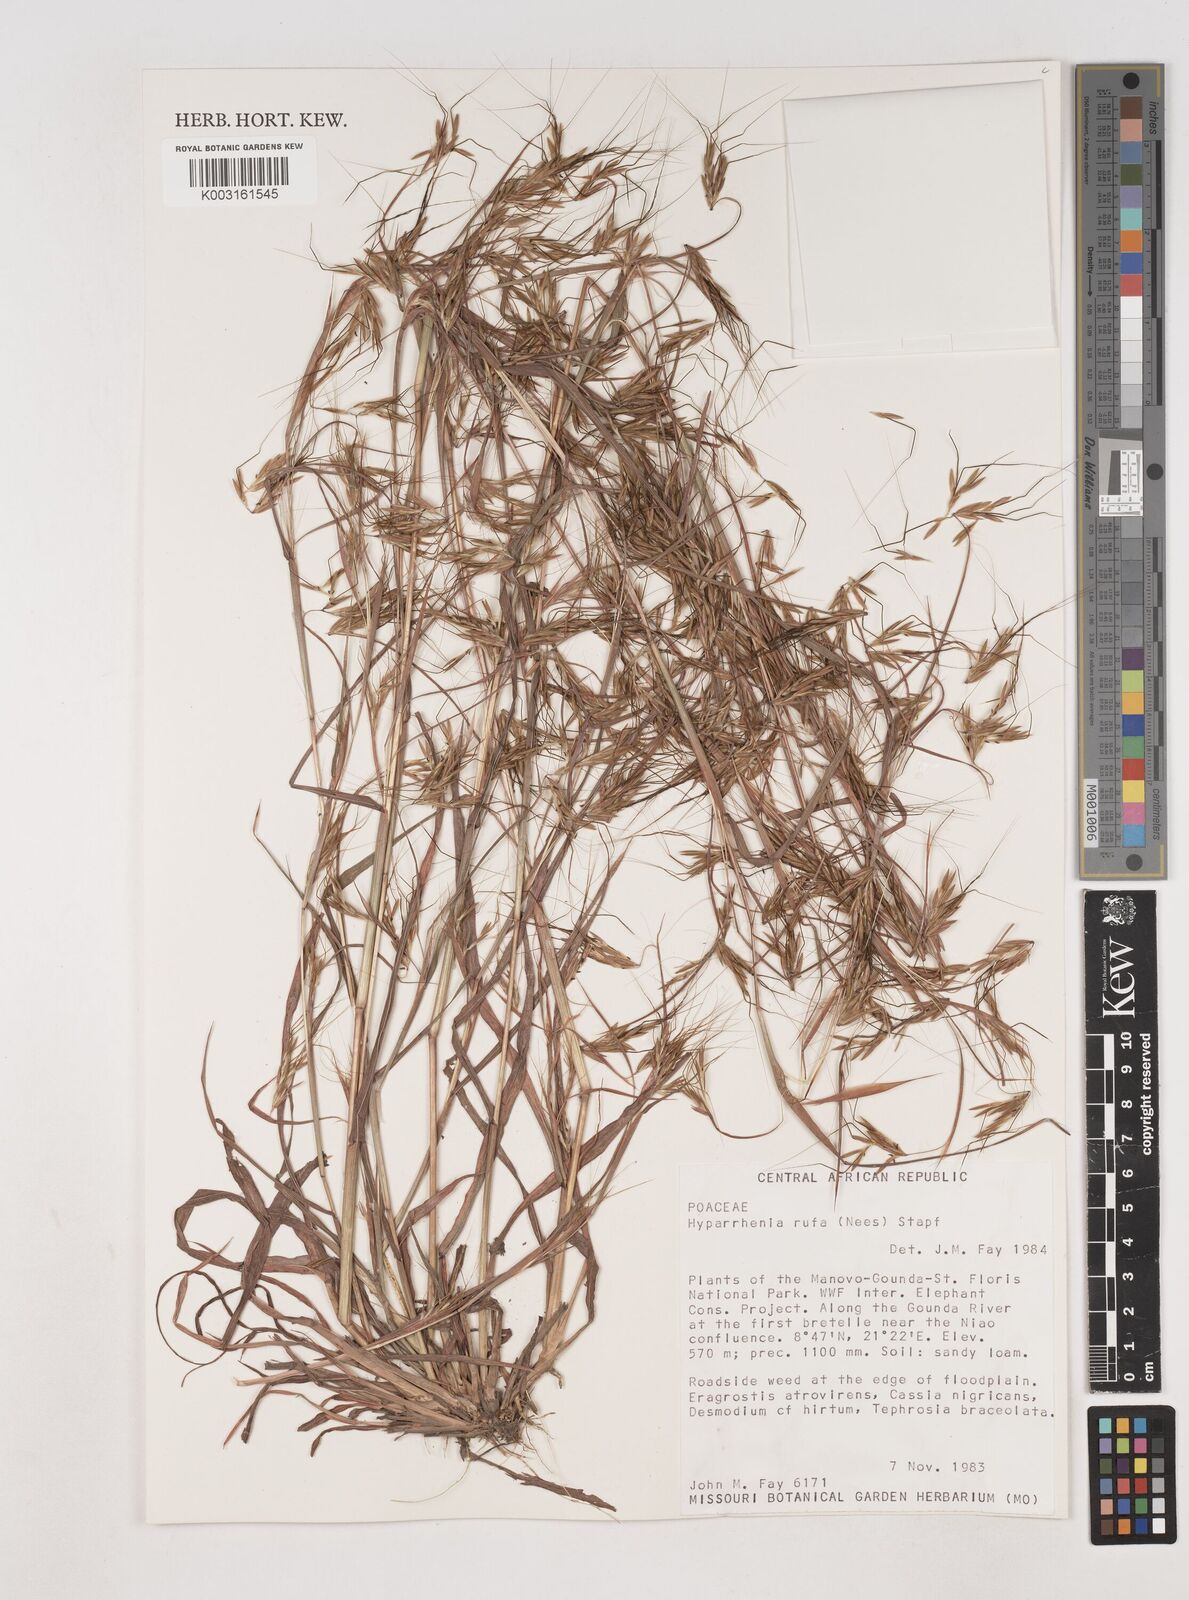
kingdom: Plantae
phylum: Tracheophyta
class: Liliopsida
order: Poales
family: Poaceae
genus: Hyparrhenia
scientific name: Hyparrhenia rufa
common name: Jaraguagrass
